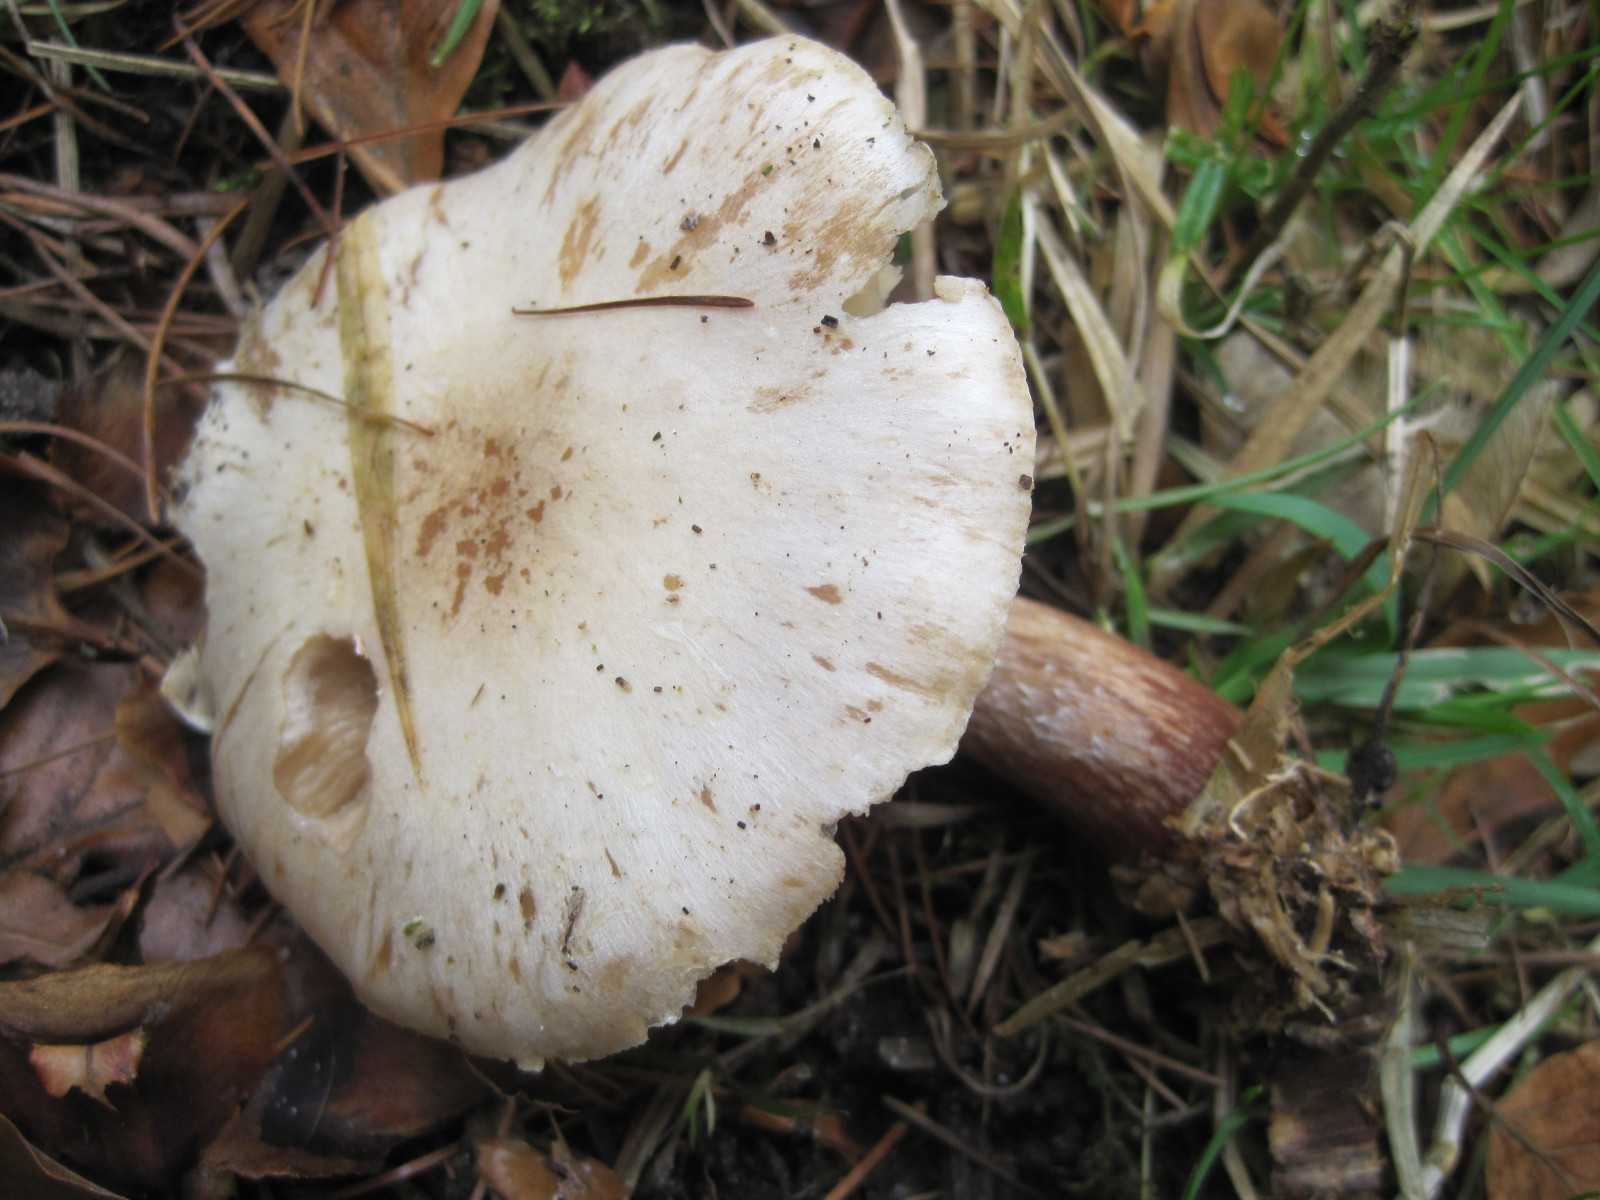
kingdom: Fungi
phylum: Basidiomycota
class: Agaricomycetes
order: Agaricales
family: Tricholomataceae
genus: Tricholoma
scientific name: Tricholoma album
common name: honning-ridderhat
